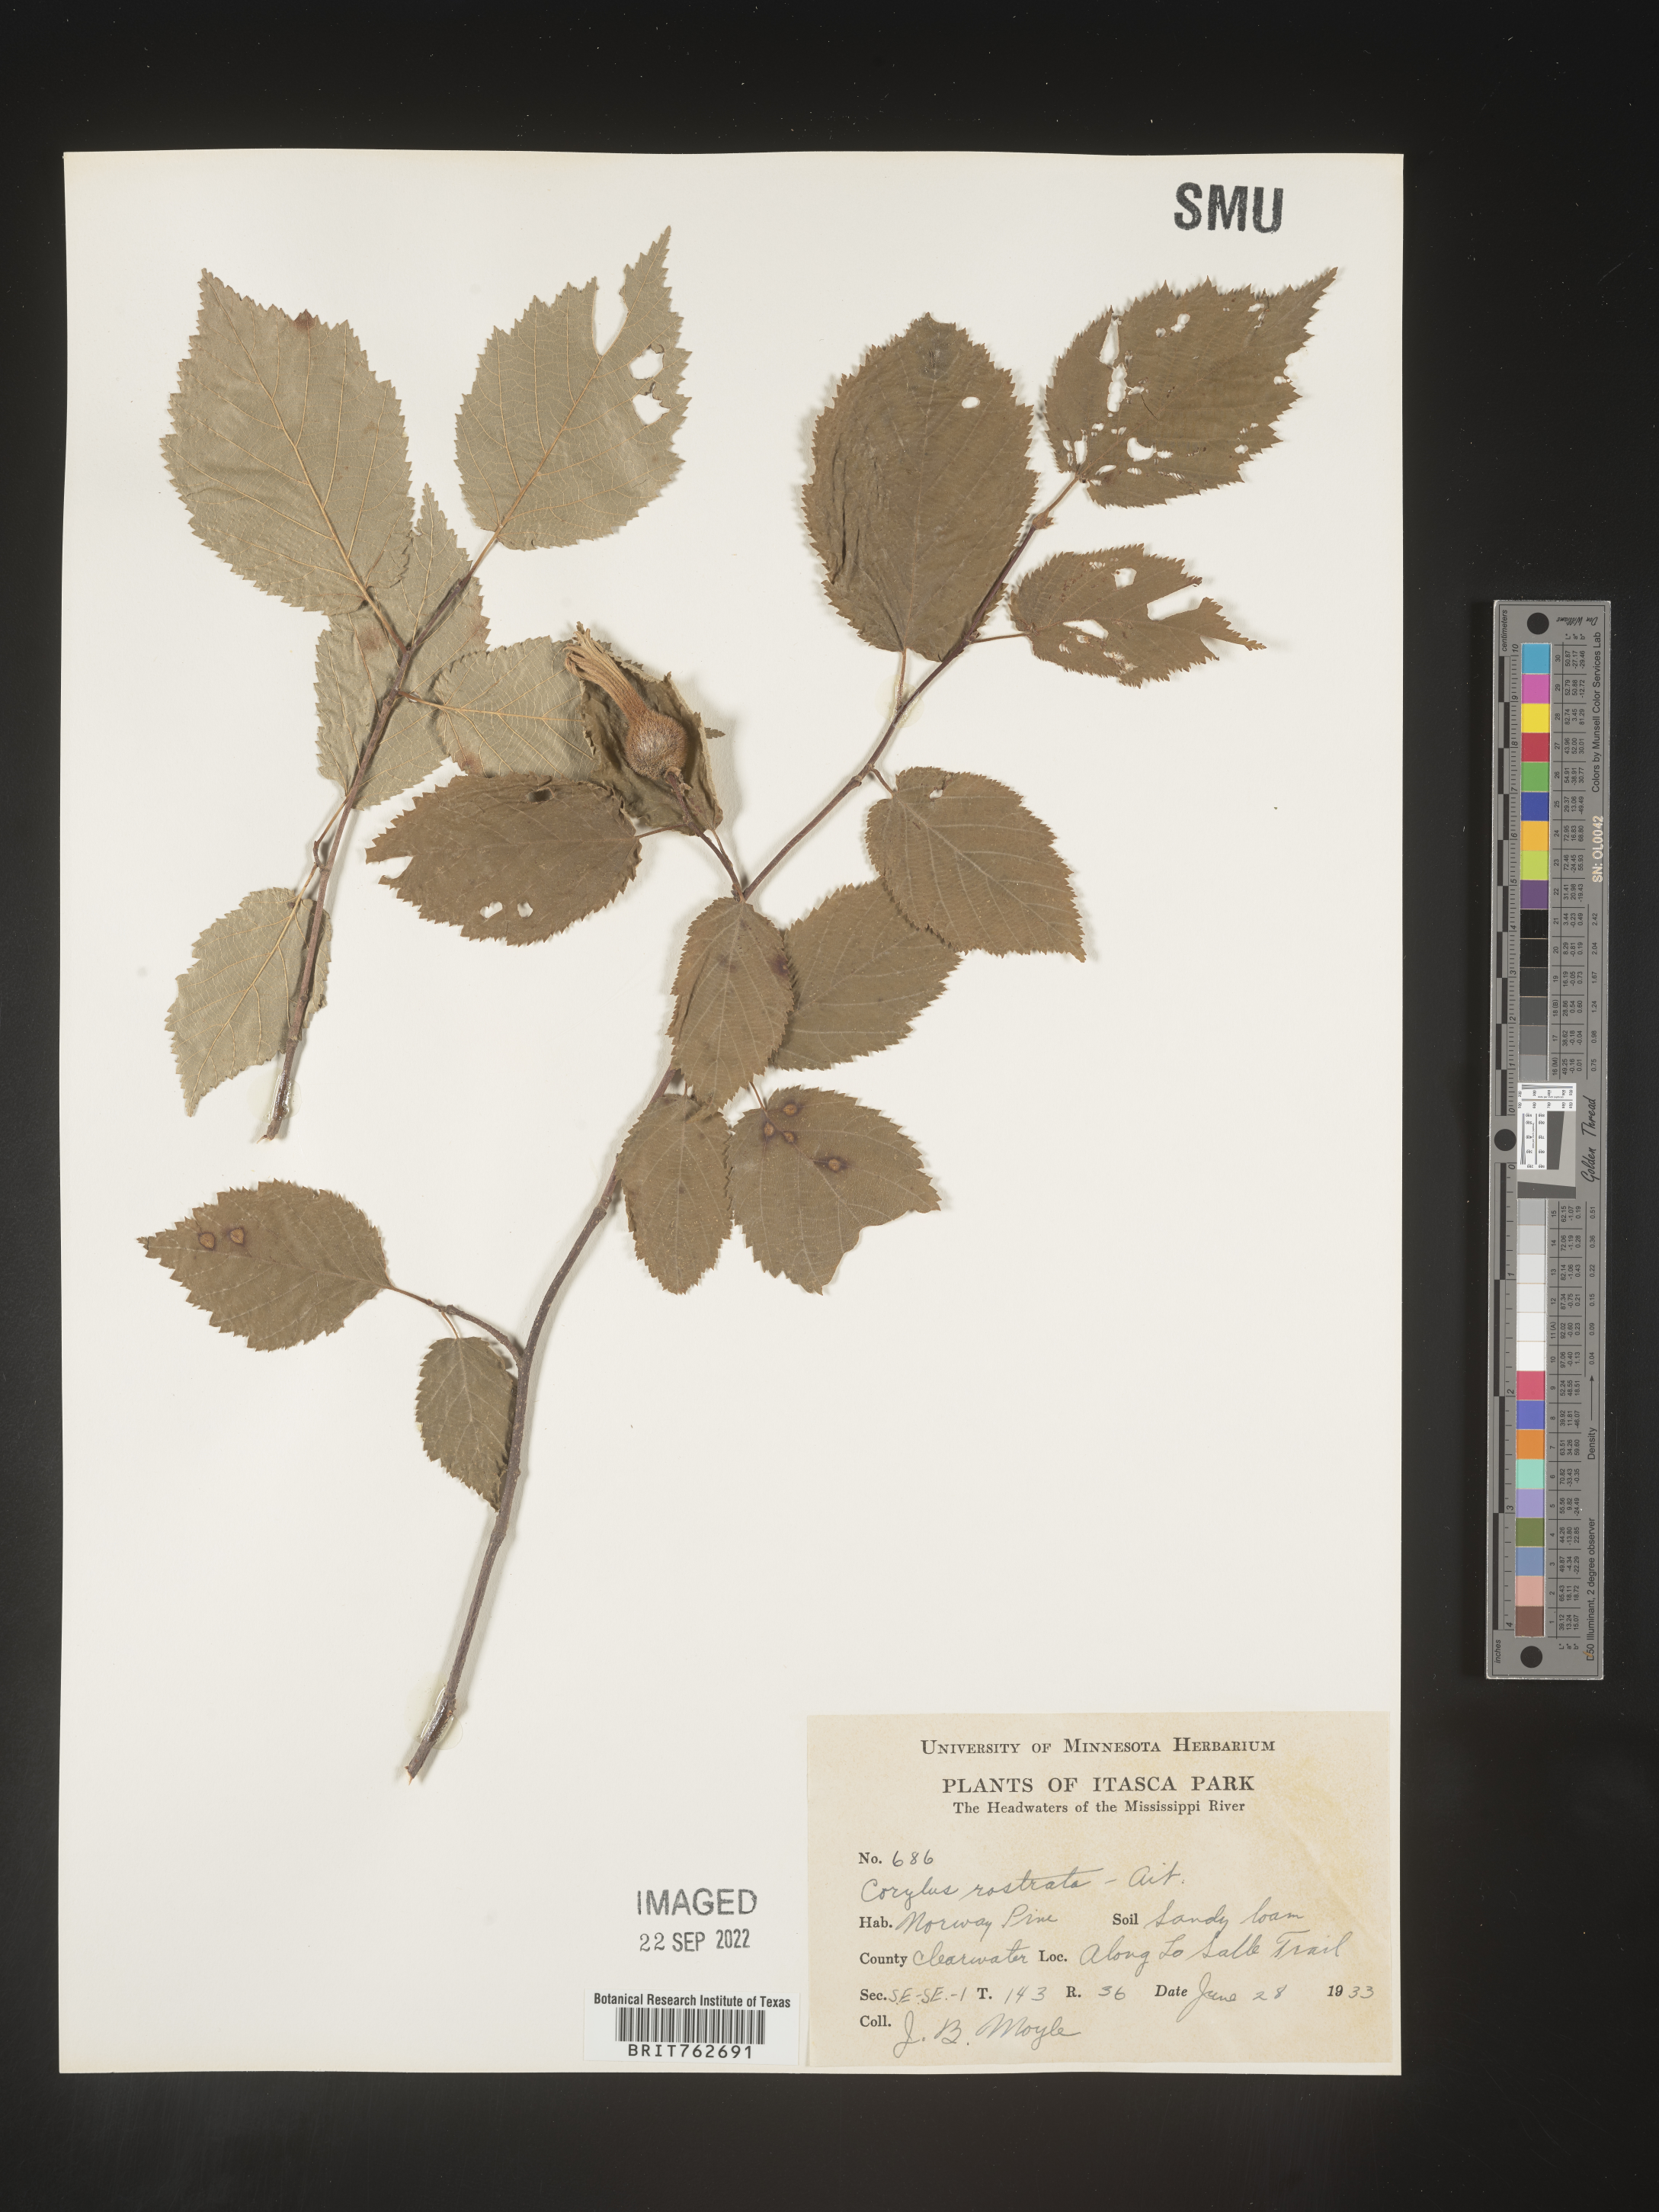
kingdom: Plantae
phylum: Tracheophyta
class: Magnoliopsida
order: Fagales
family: Betulaceae
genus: Corylus
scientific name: Corylus cornuta
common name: Beaked hazel
